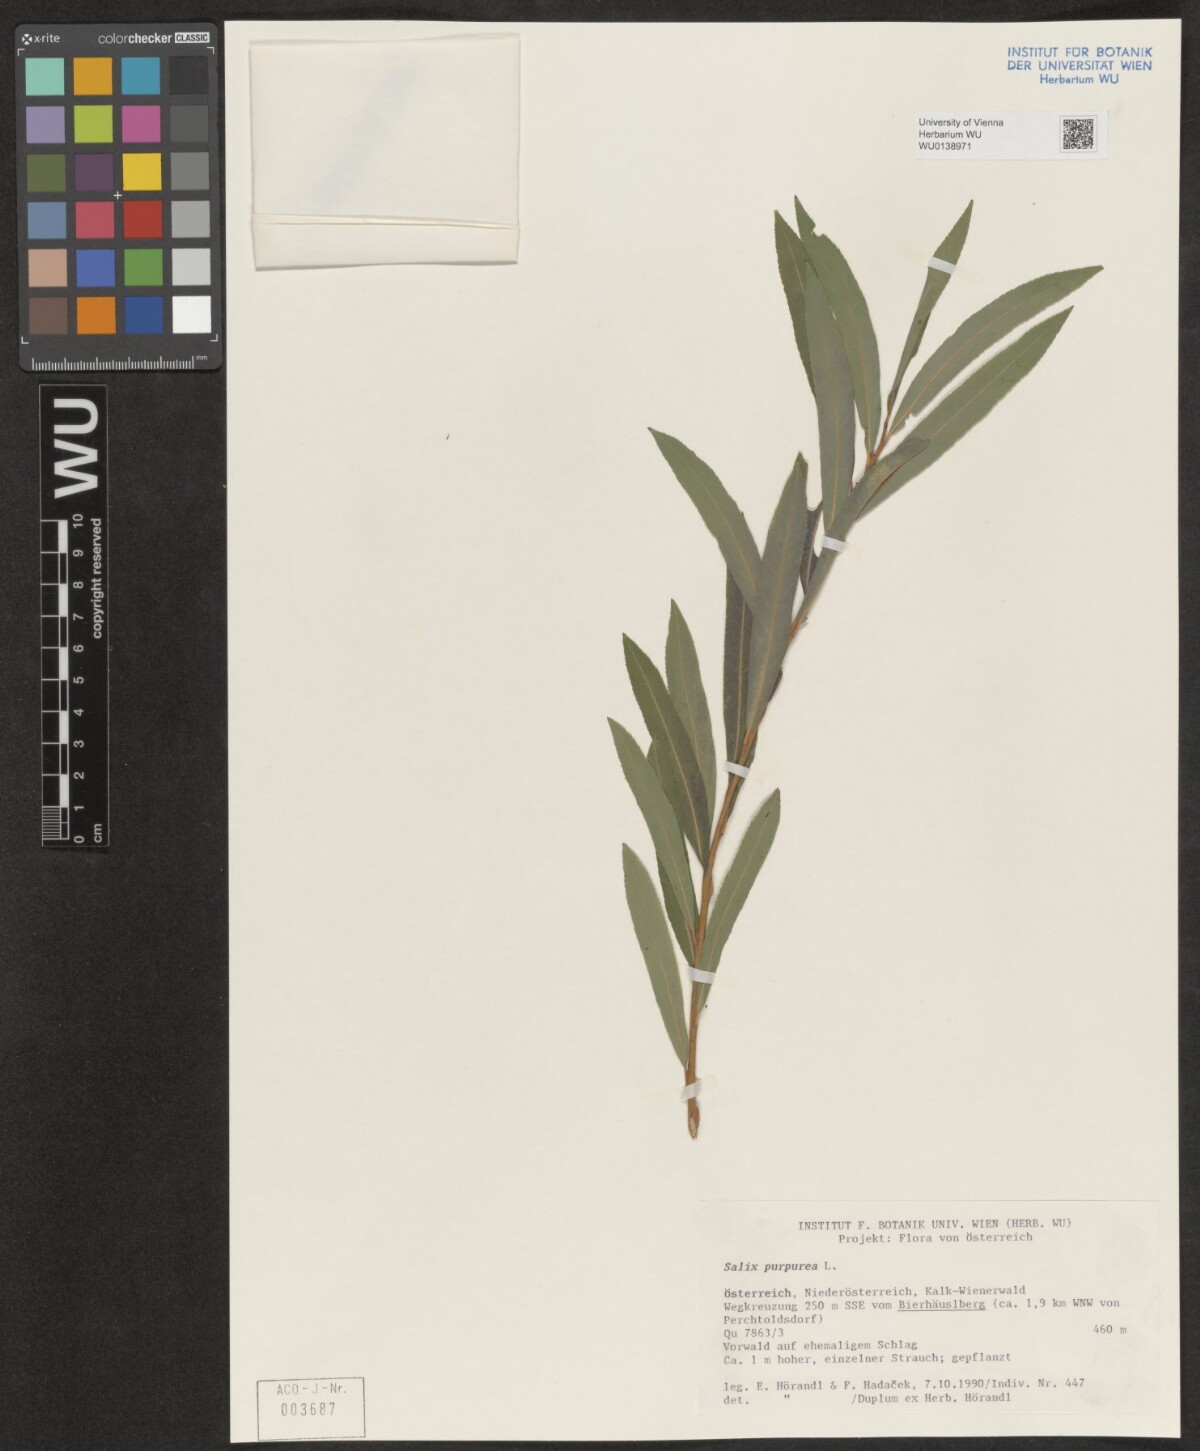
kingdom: Plantae
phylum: Tracheophyta
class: Magnoliopsida
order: Malpighiales
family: Salicaceae
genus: Salix
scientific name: Salix purpurea
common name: Purple willow
